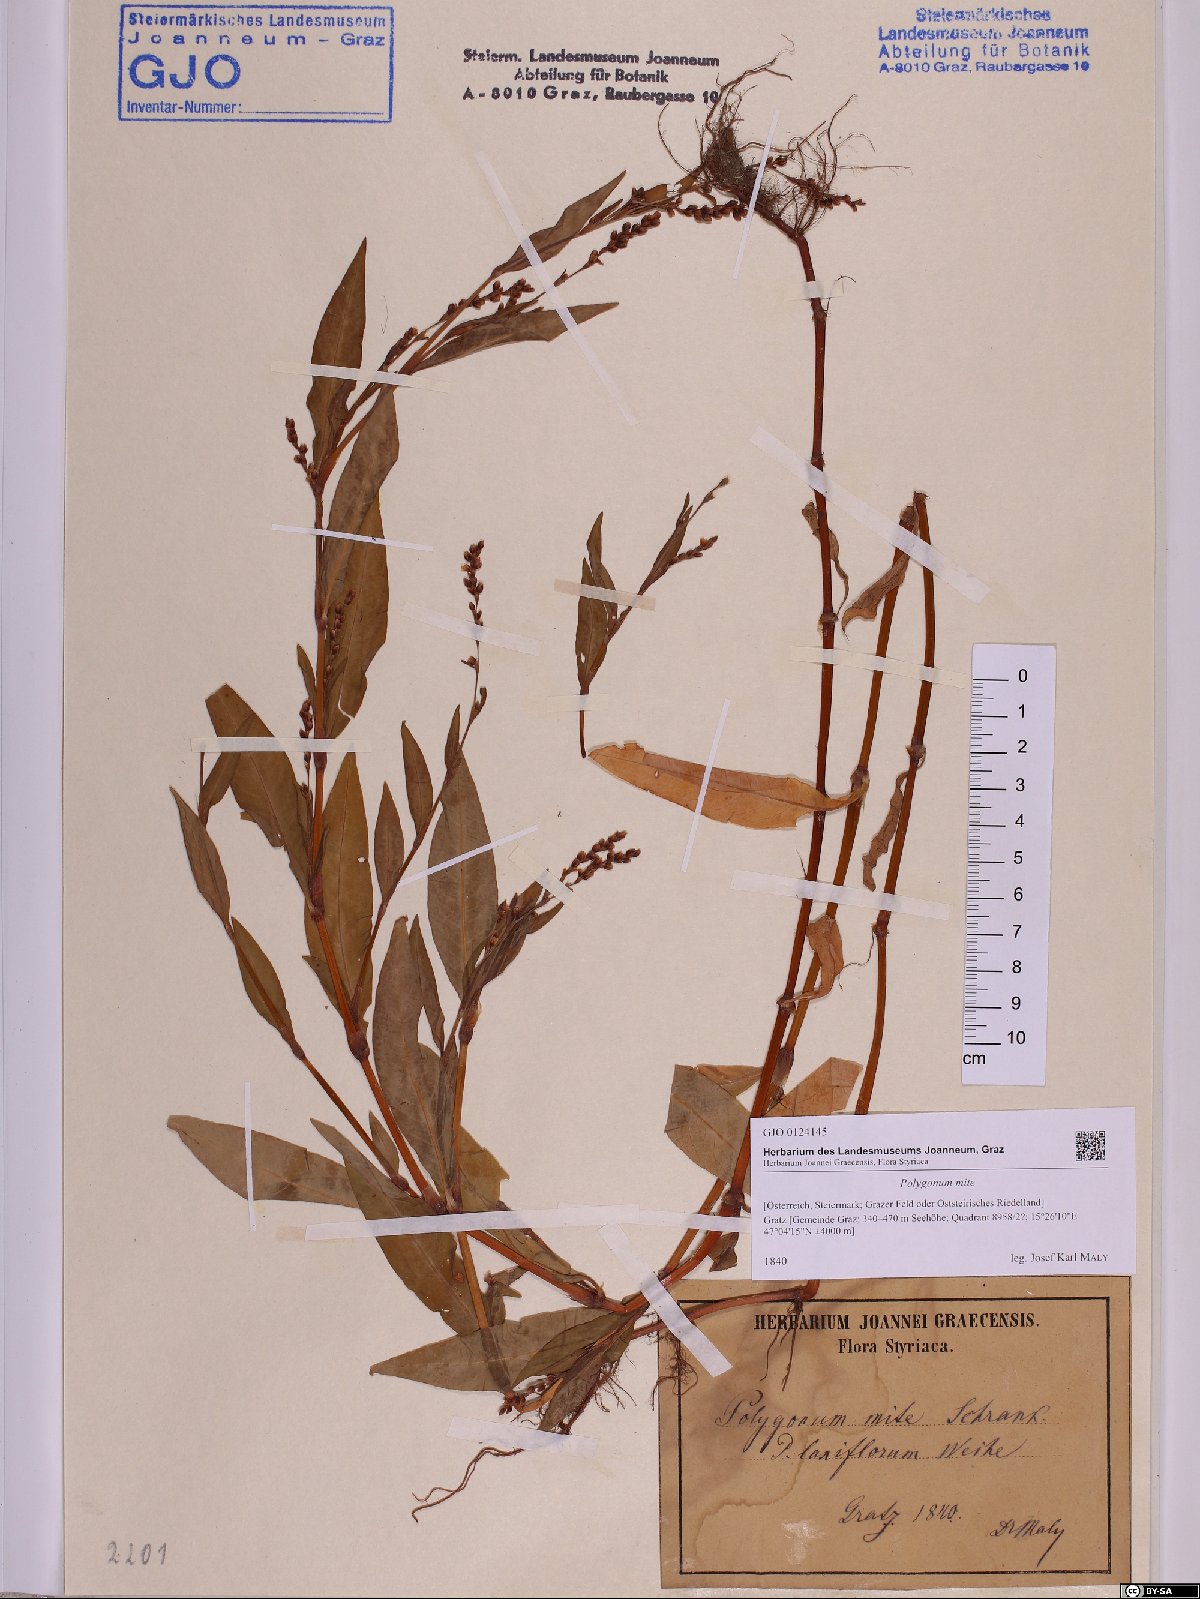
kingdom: Plantae
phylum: Tracheophyta
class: Magnoliopsida
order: Caryophyllales
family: Polygonaceae
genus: Persicaria
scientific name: Persicaria mitis
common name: Tasteless water-pepper
